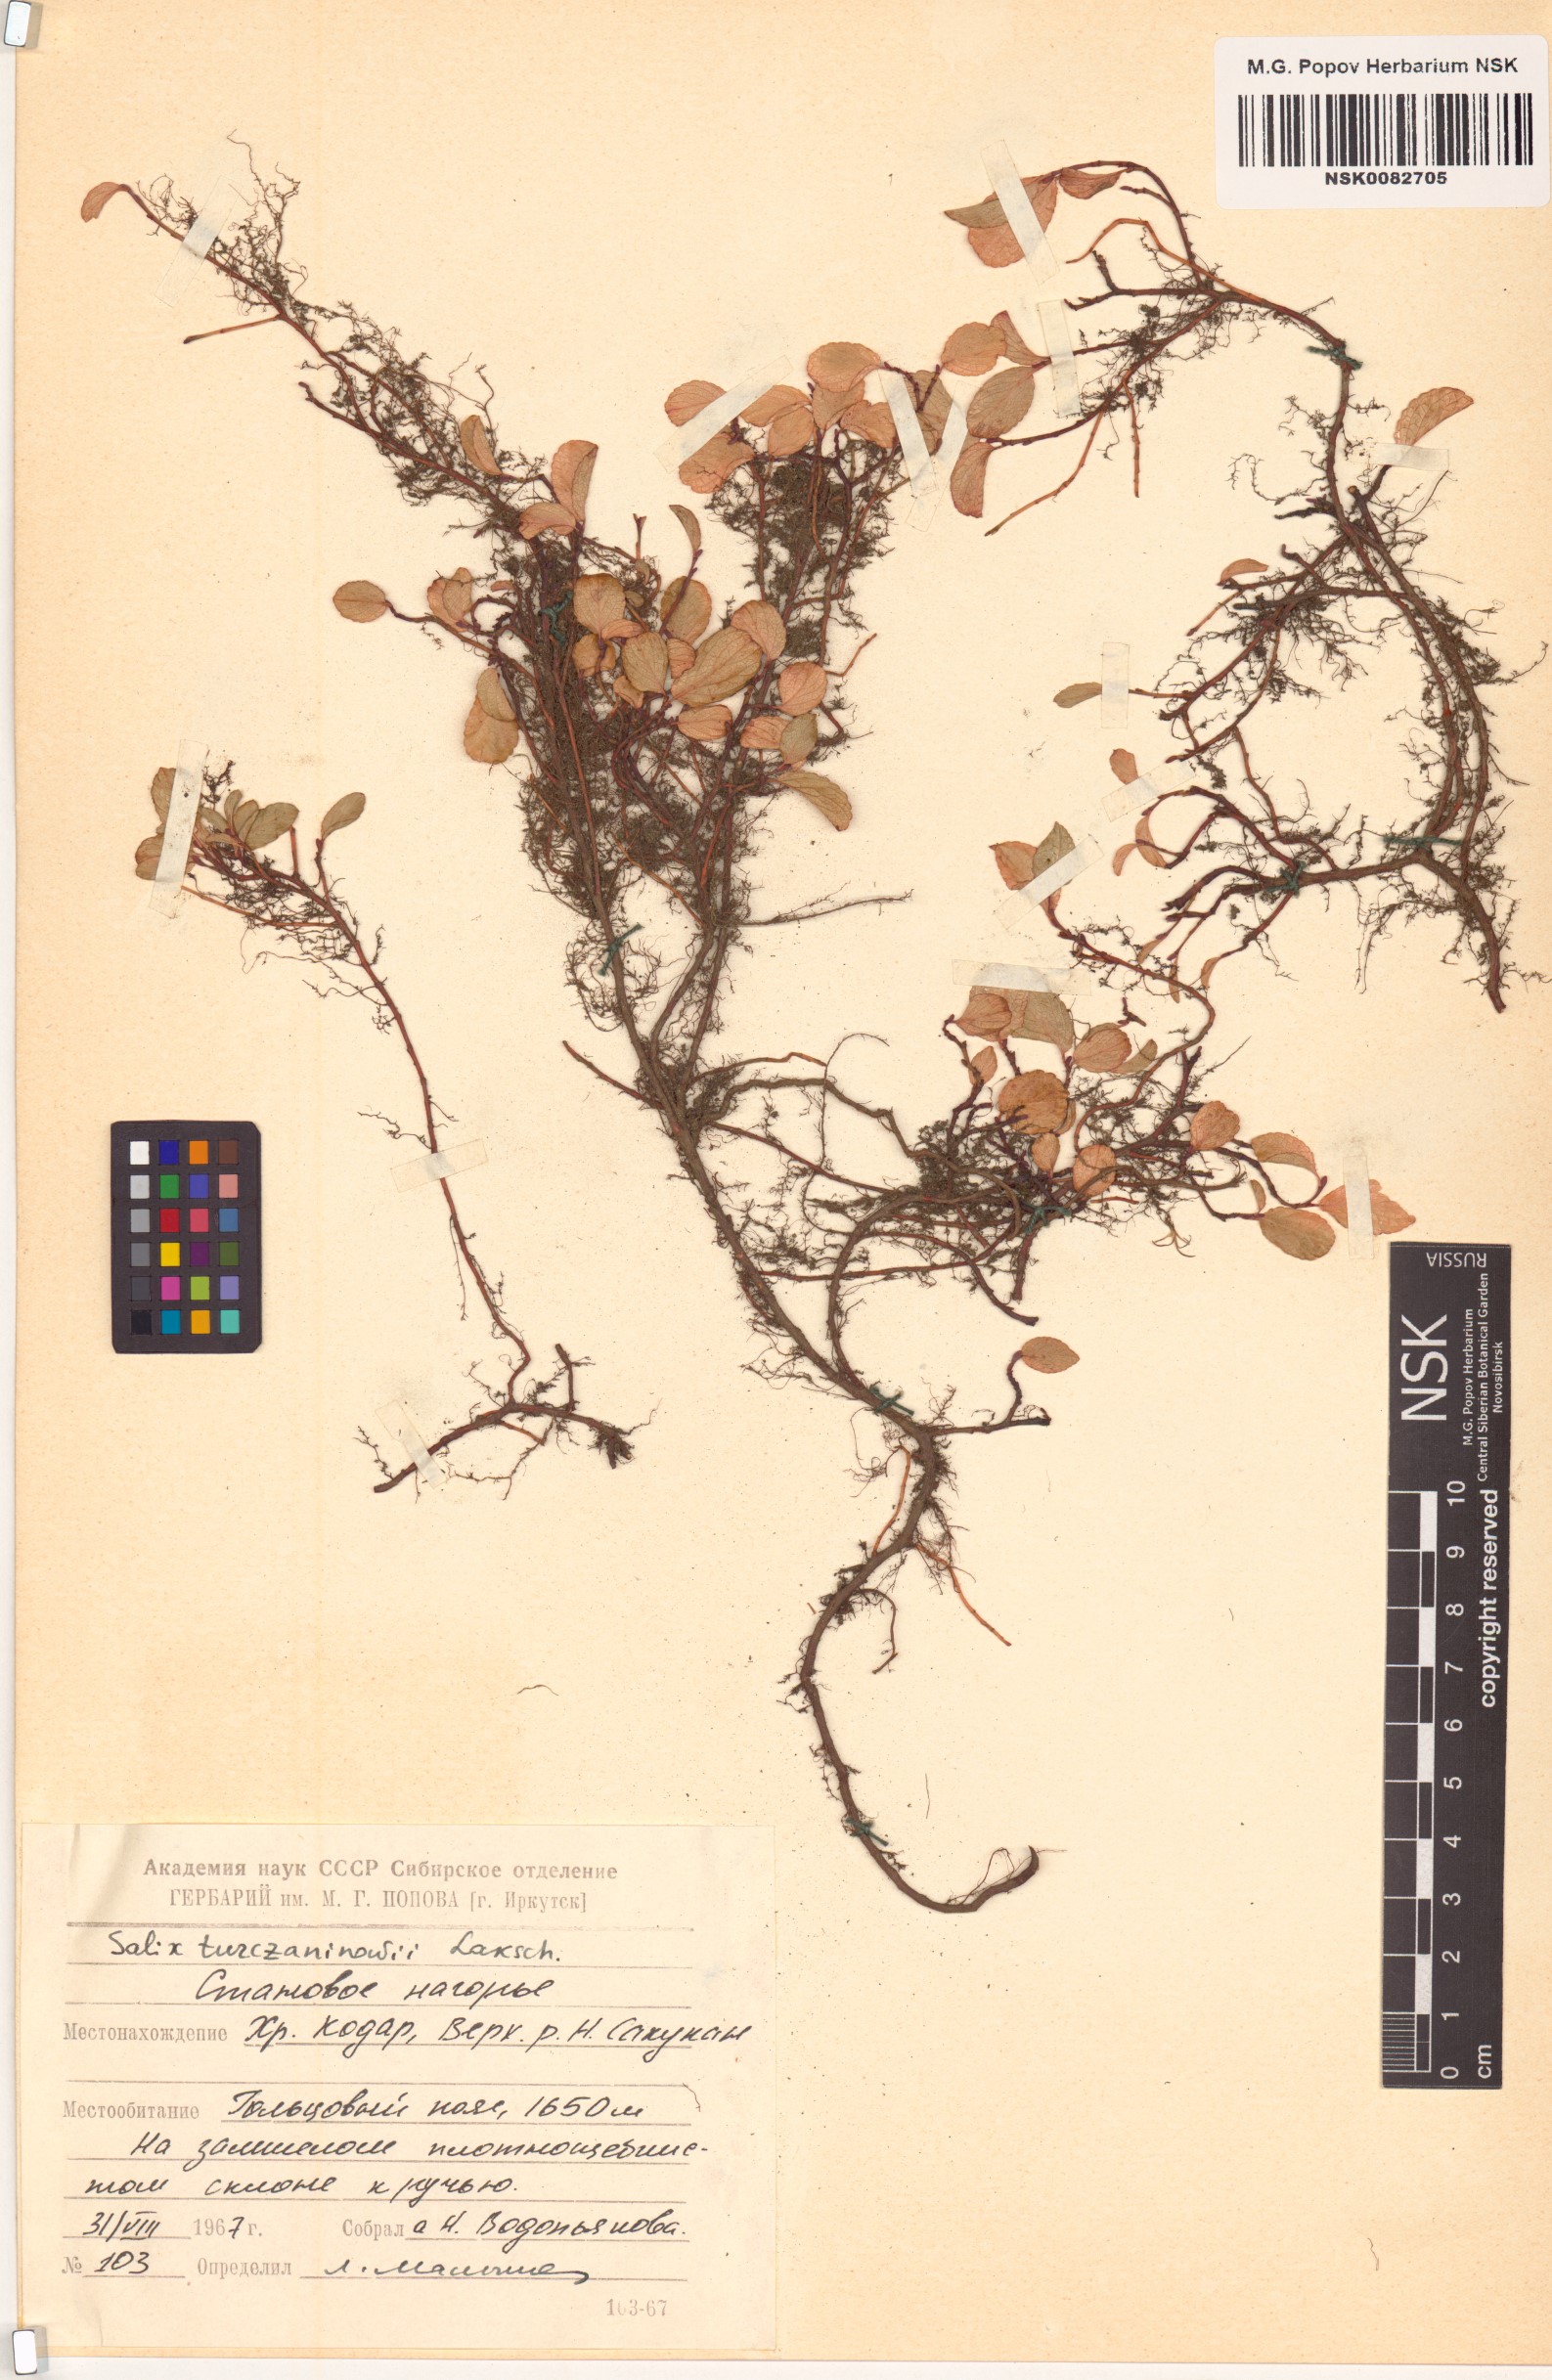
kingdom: Plantae
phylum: Tracheophyta
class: Magnoliopsida
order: Malpighiales
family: Salicaceae
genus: Salix
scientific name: Salix turczaninowii
